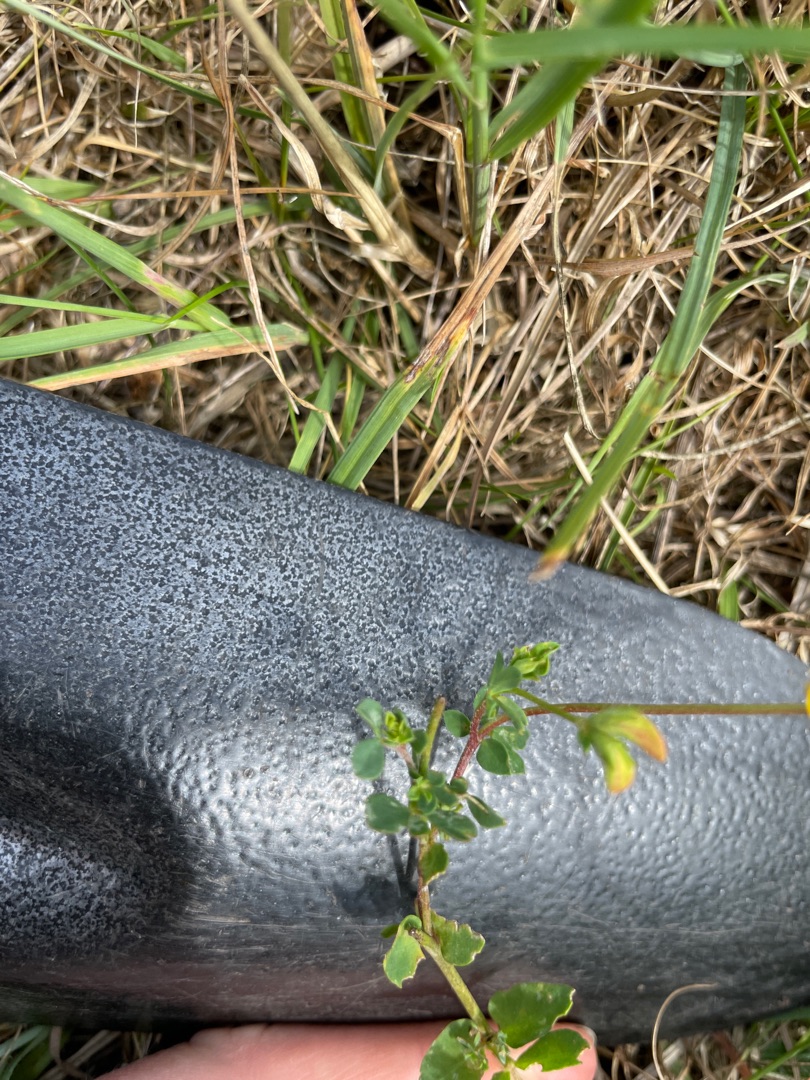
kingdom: Plantae
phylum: Tracheophyta
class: Magnoliopsida
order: Fabales
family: Fabaceae
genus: Lotus
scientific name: Lotus corniculatus
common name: Almindelig kællingetand
